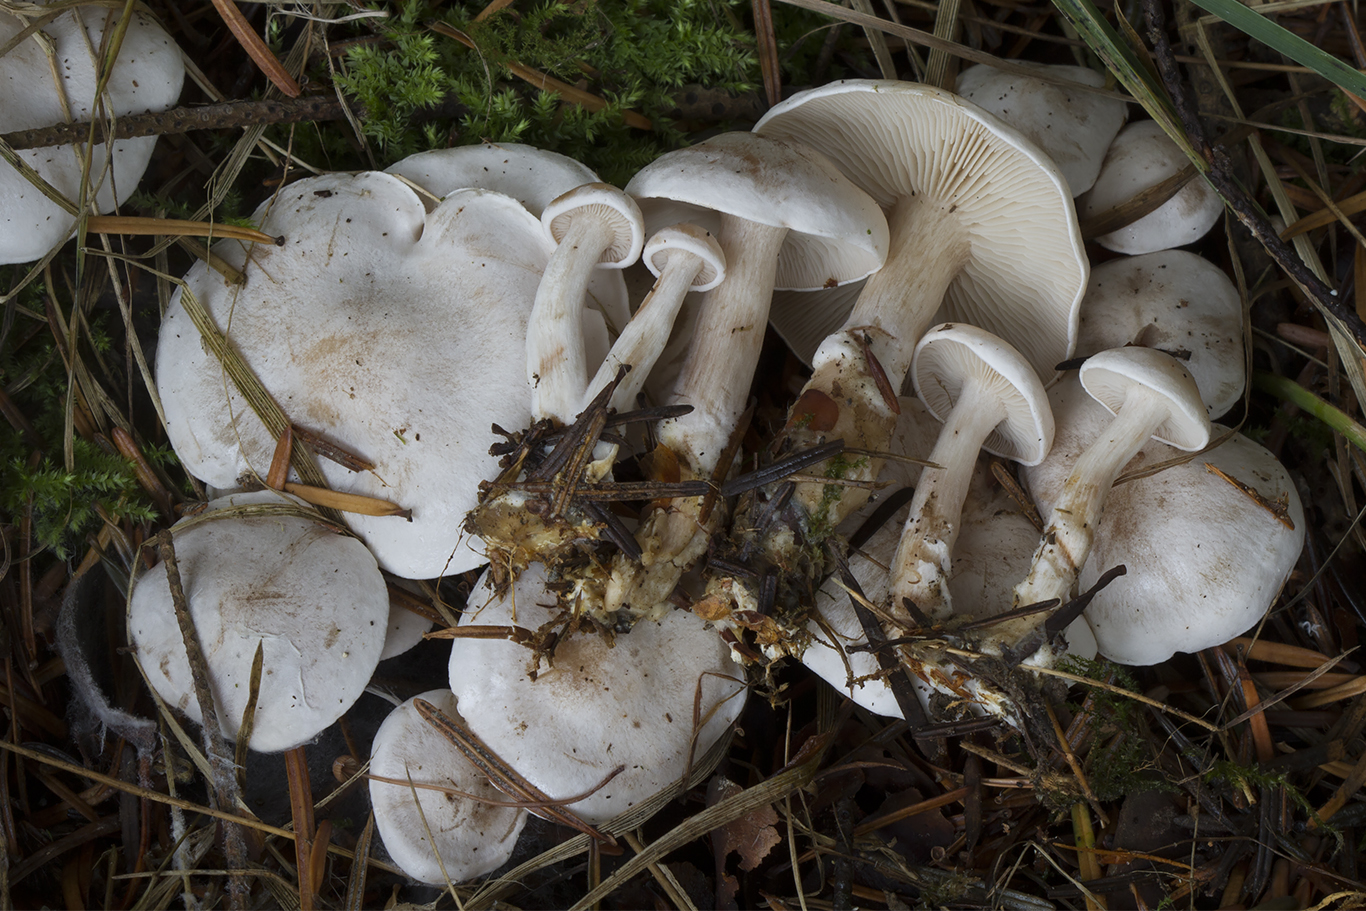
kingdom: Fungi
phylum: Basidiomycota
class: Agaricomycetes
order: Agaricales
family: Tricholomataceae
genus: Clitocybe
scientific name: Clitocybe phyllophila
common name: løv-tragthat
